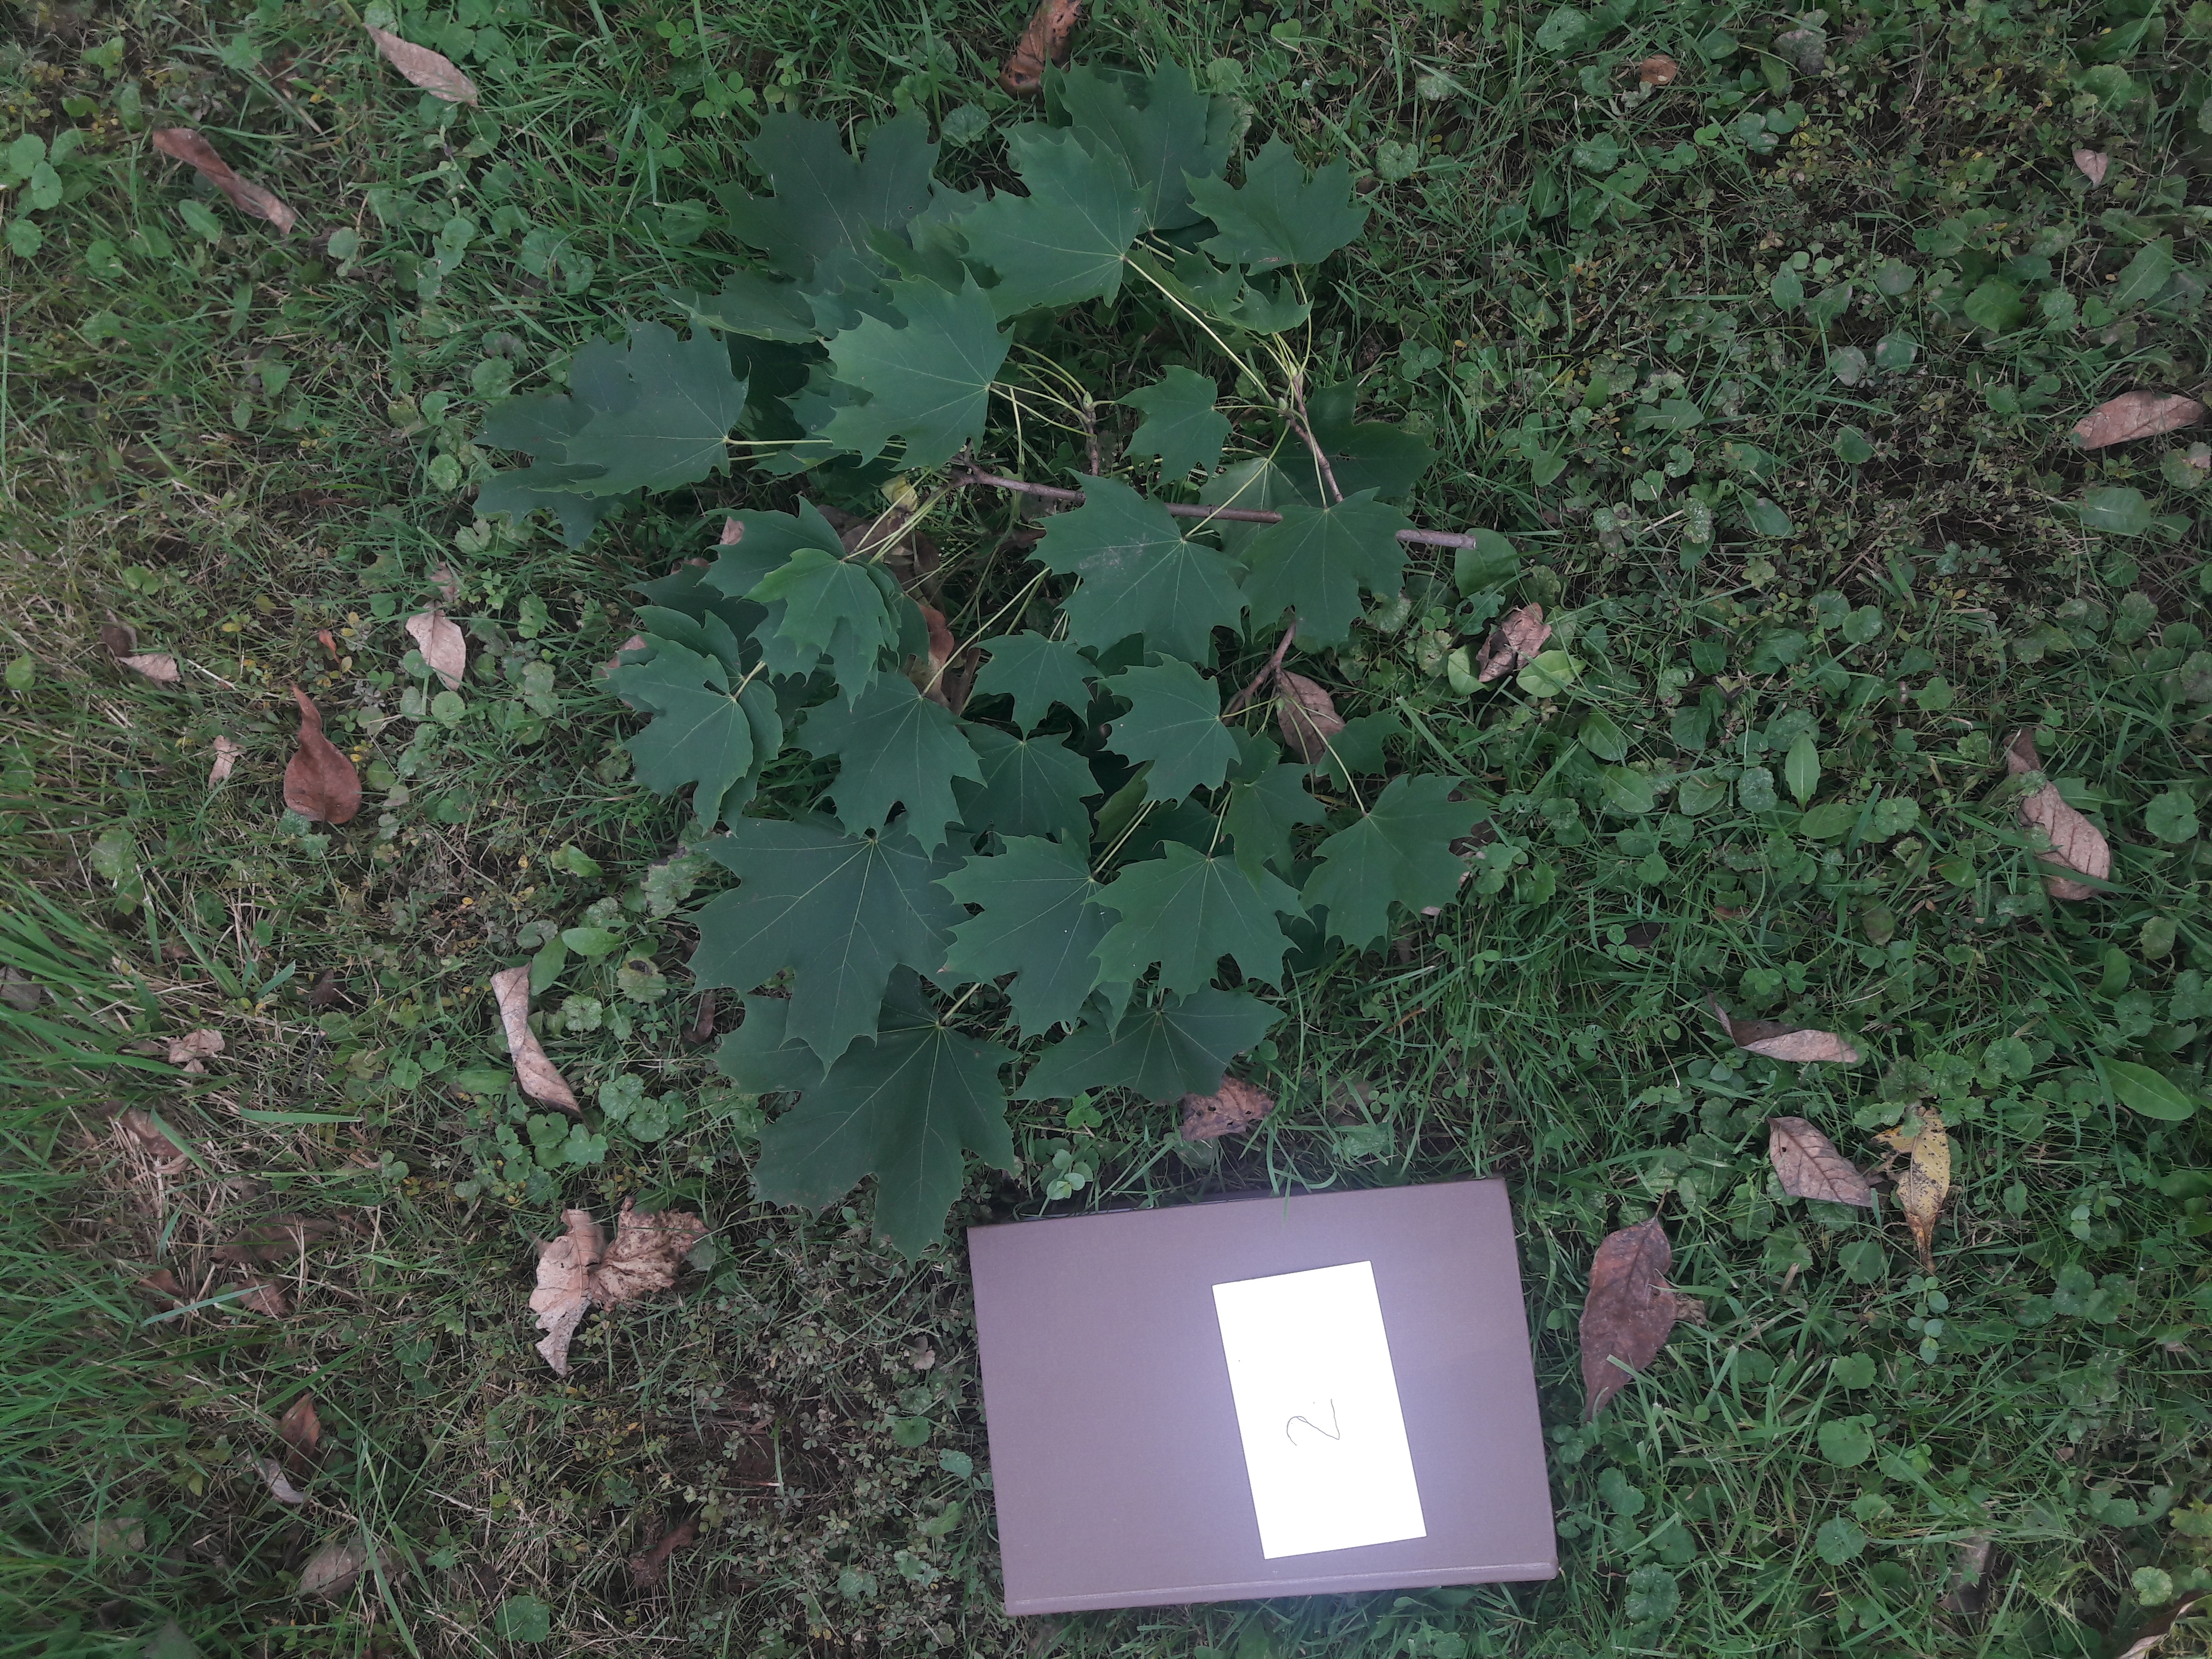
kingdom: Plantae
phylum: Tracheophyta
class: Magnoliopsida
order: Sapindales
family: Sapindaceae
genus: Acer
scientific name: Acer platanoides
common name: Norway Maple
